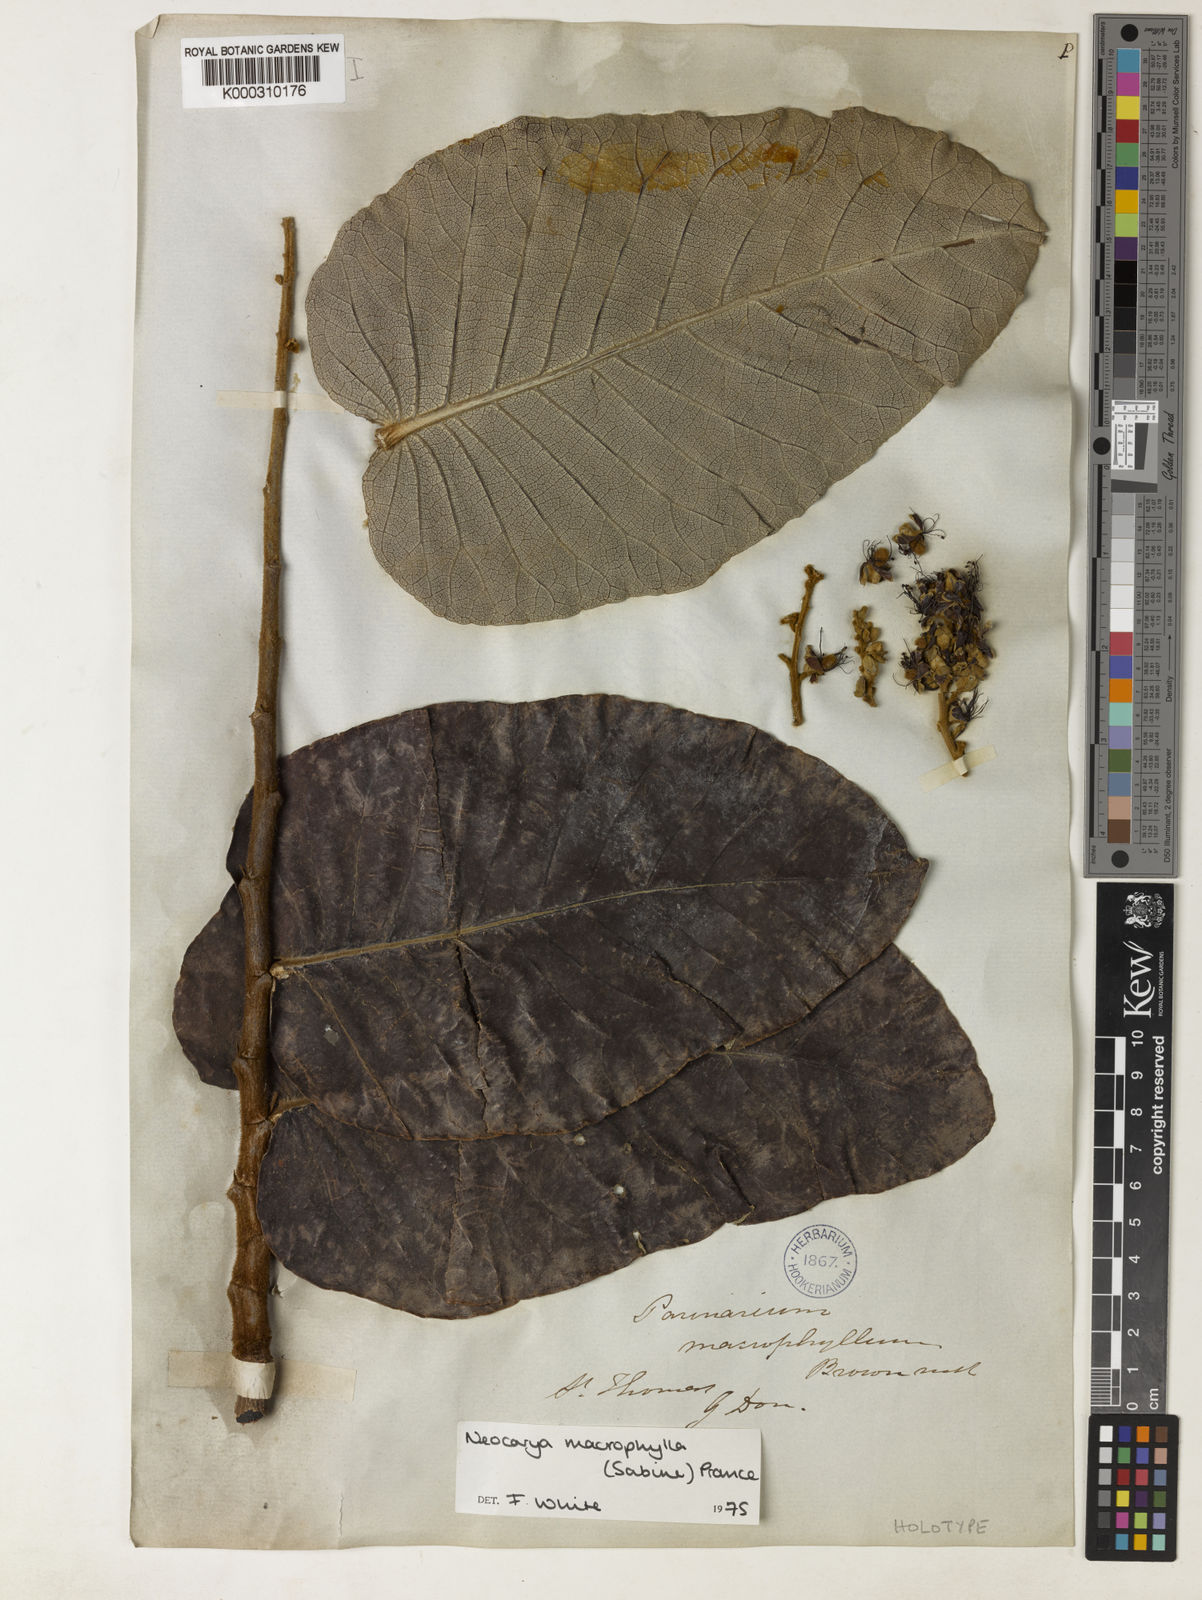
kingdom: Plantae
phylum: Tracheophyta
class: Magnoliopsida
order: Malpighiales
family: Chrysobalanaceae
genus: Neocarya
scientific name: Neocarya
